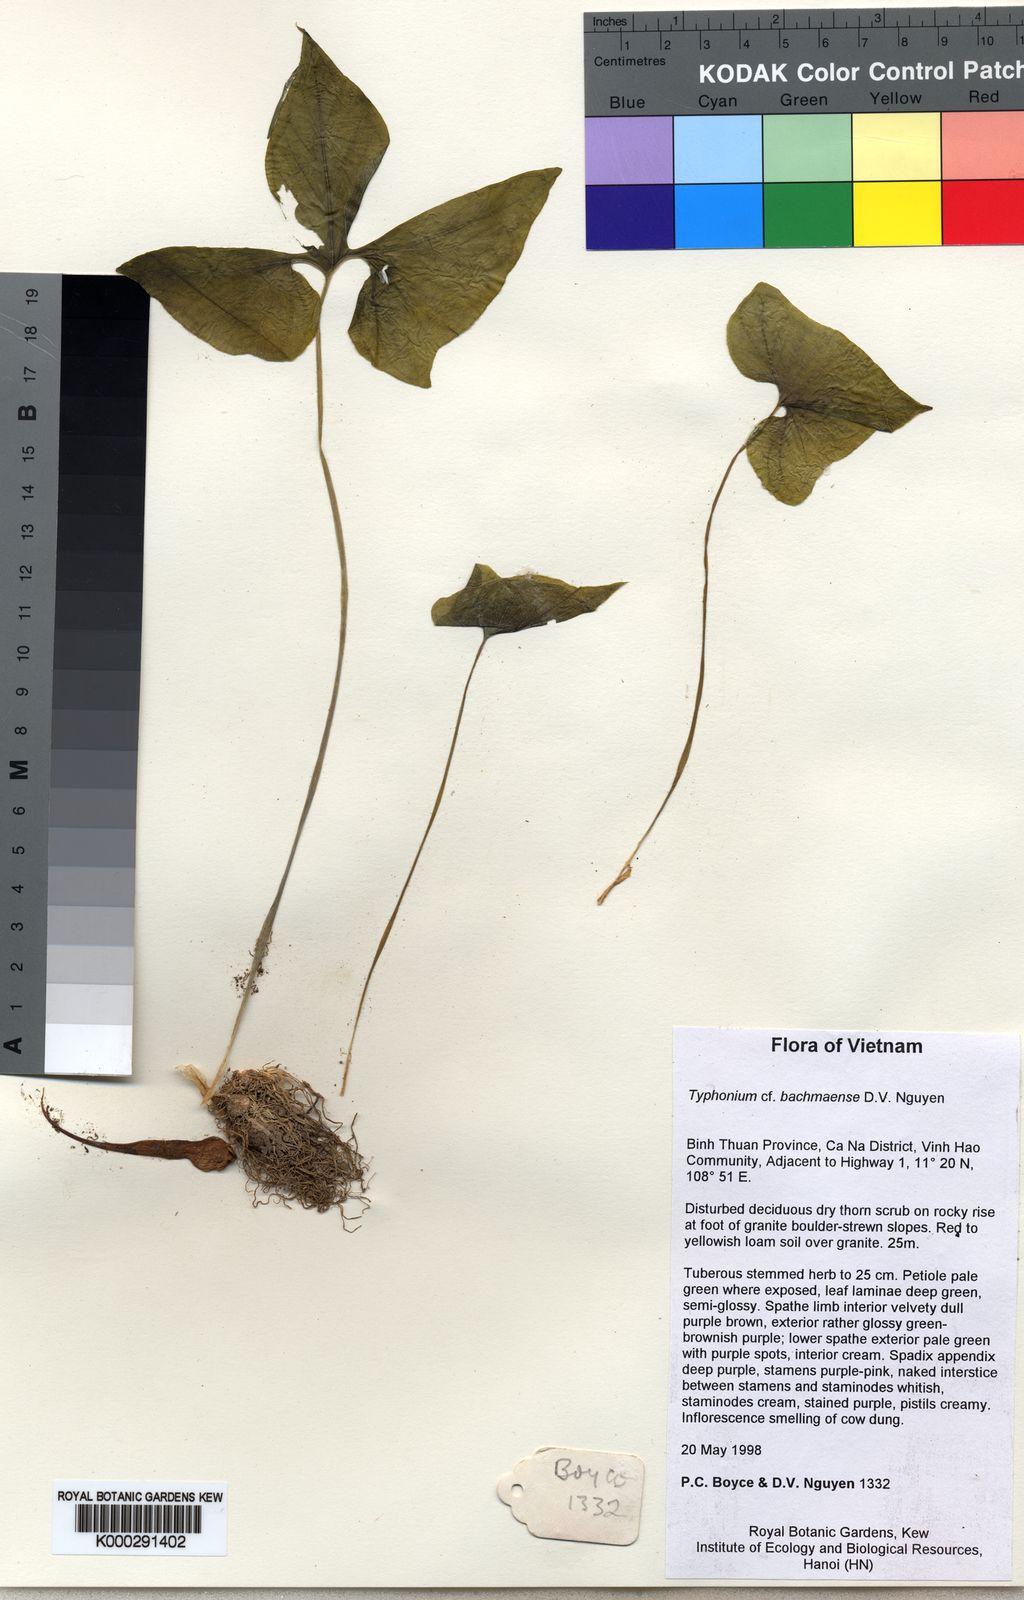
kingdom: Plantae
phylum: Tracheophyta
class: Liliopsida
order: Alismatales
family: Araceae
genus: Typhonium
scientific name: Typhonium penicillatum
